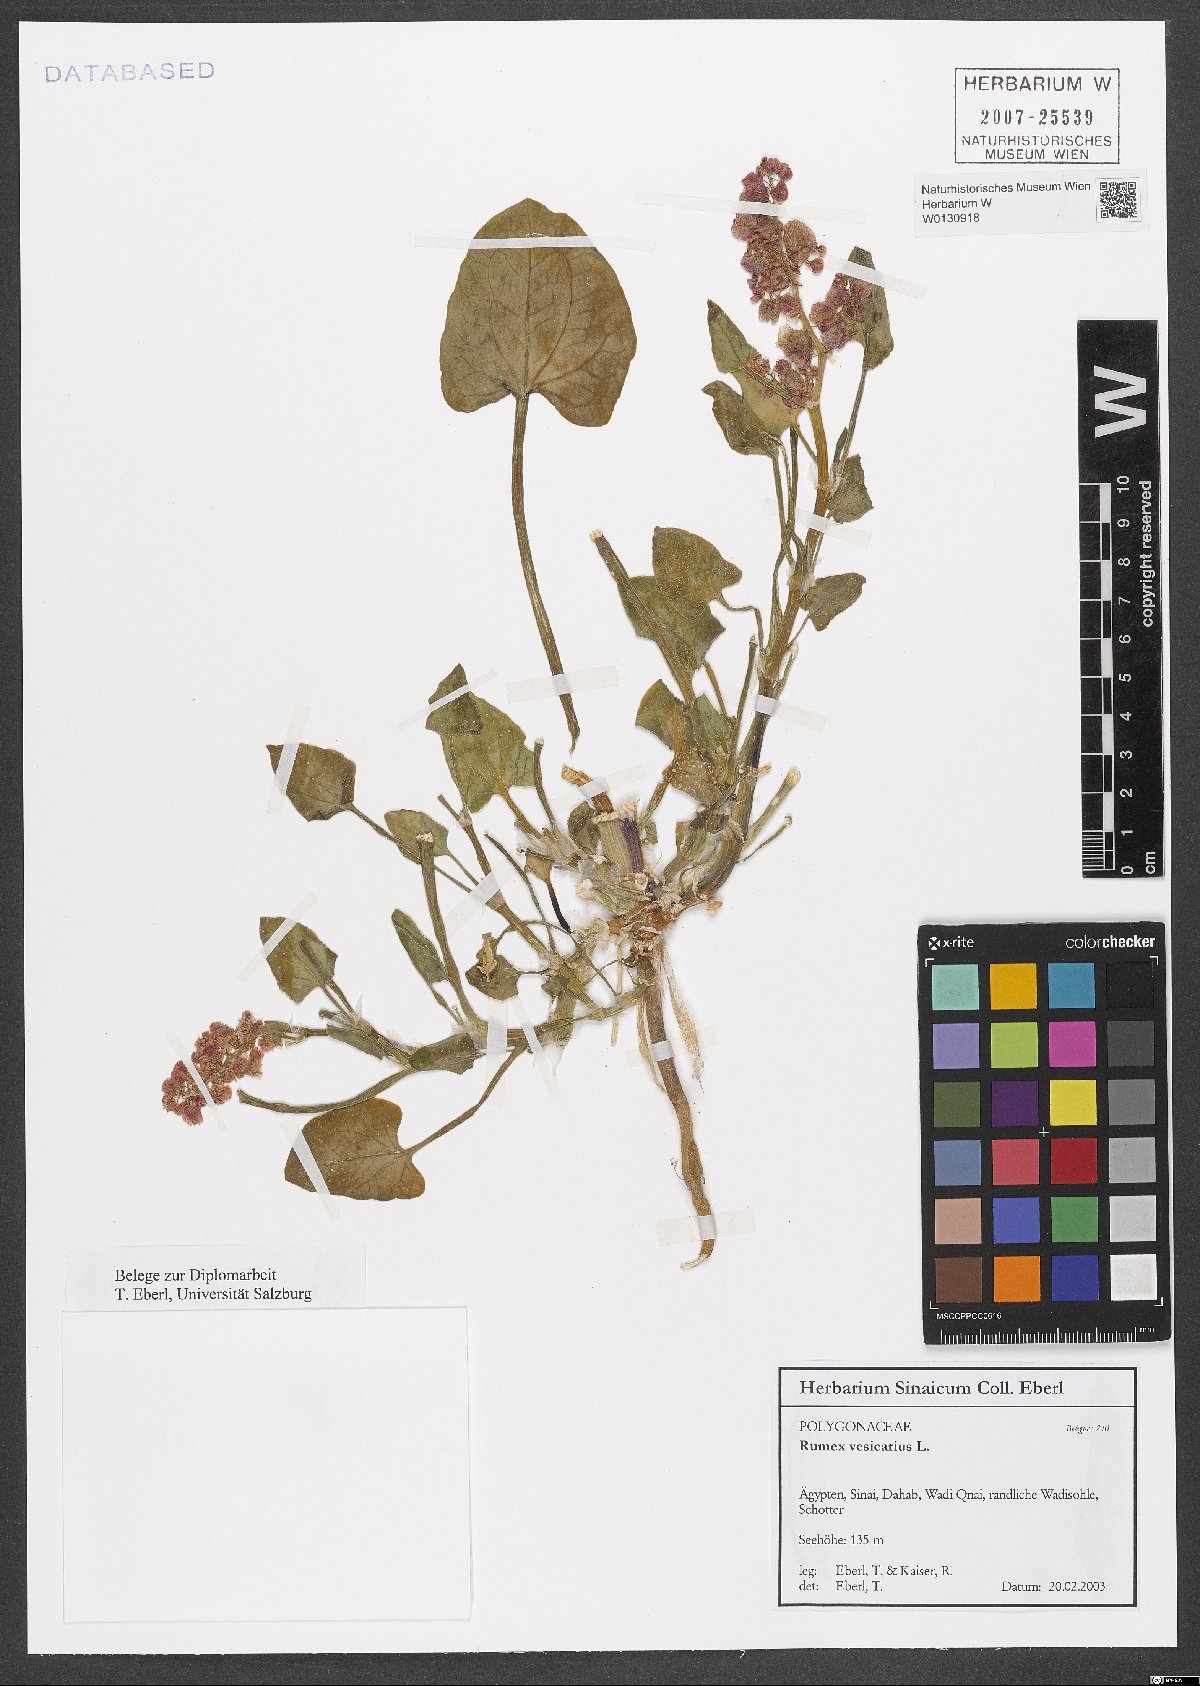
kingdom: Plantae
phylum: Tracheophyta
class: Magnoliopsida
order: Caryophyllales
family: Polygonaceae
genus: Rumex
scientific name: Rumex vesicarius
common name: Bladder dock
